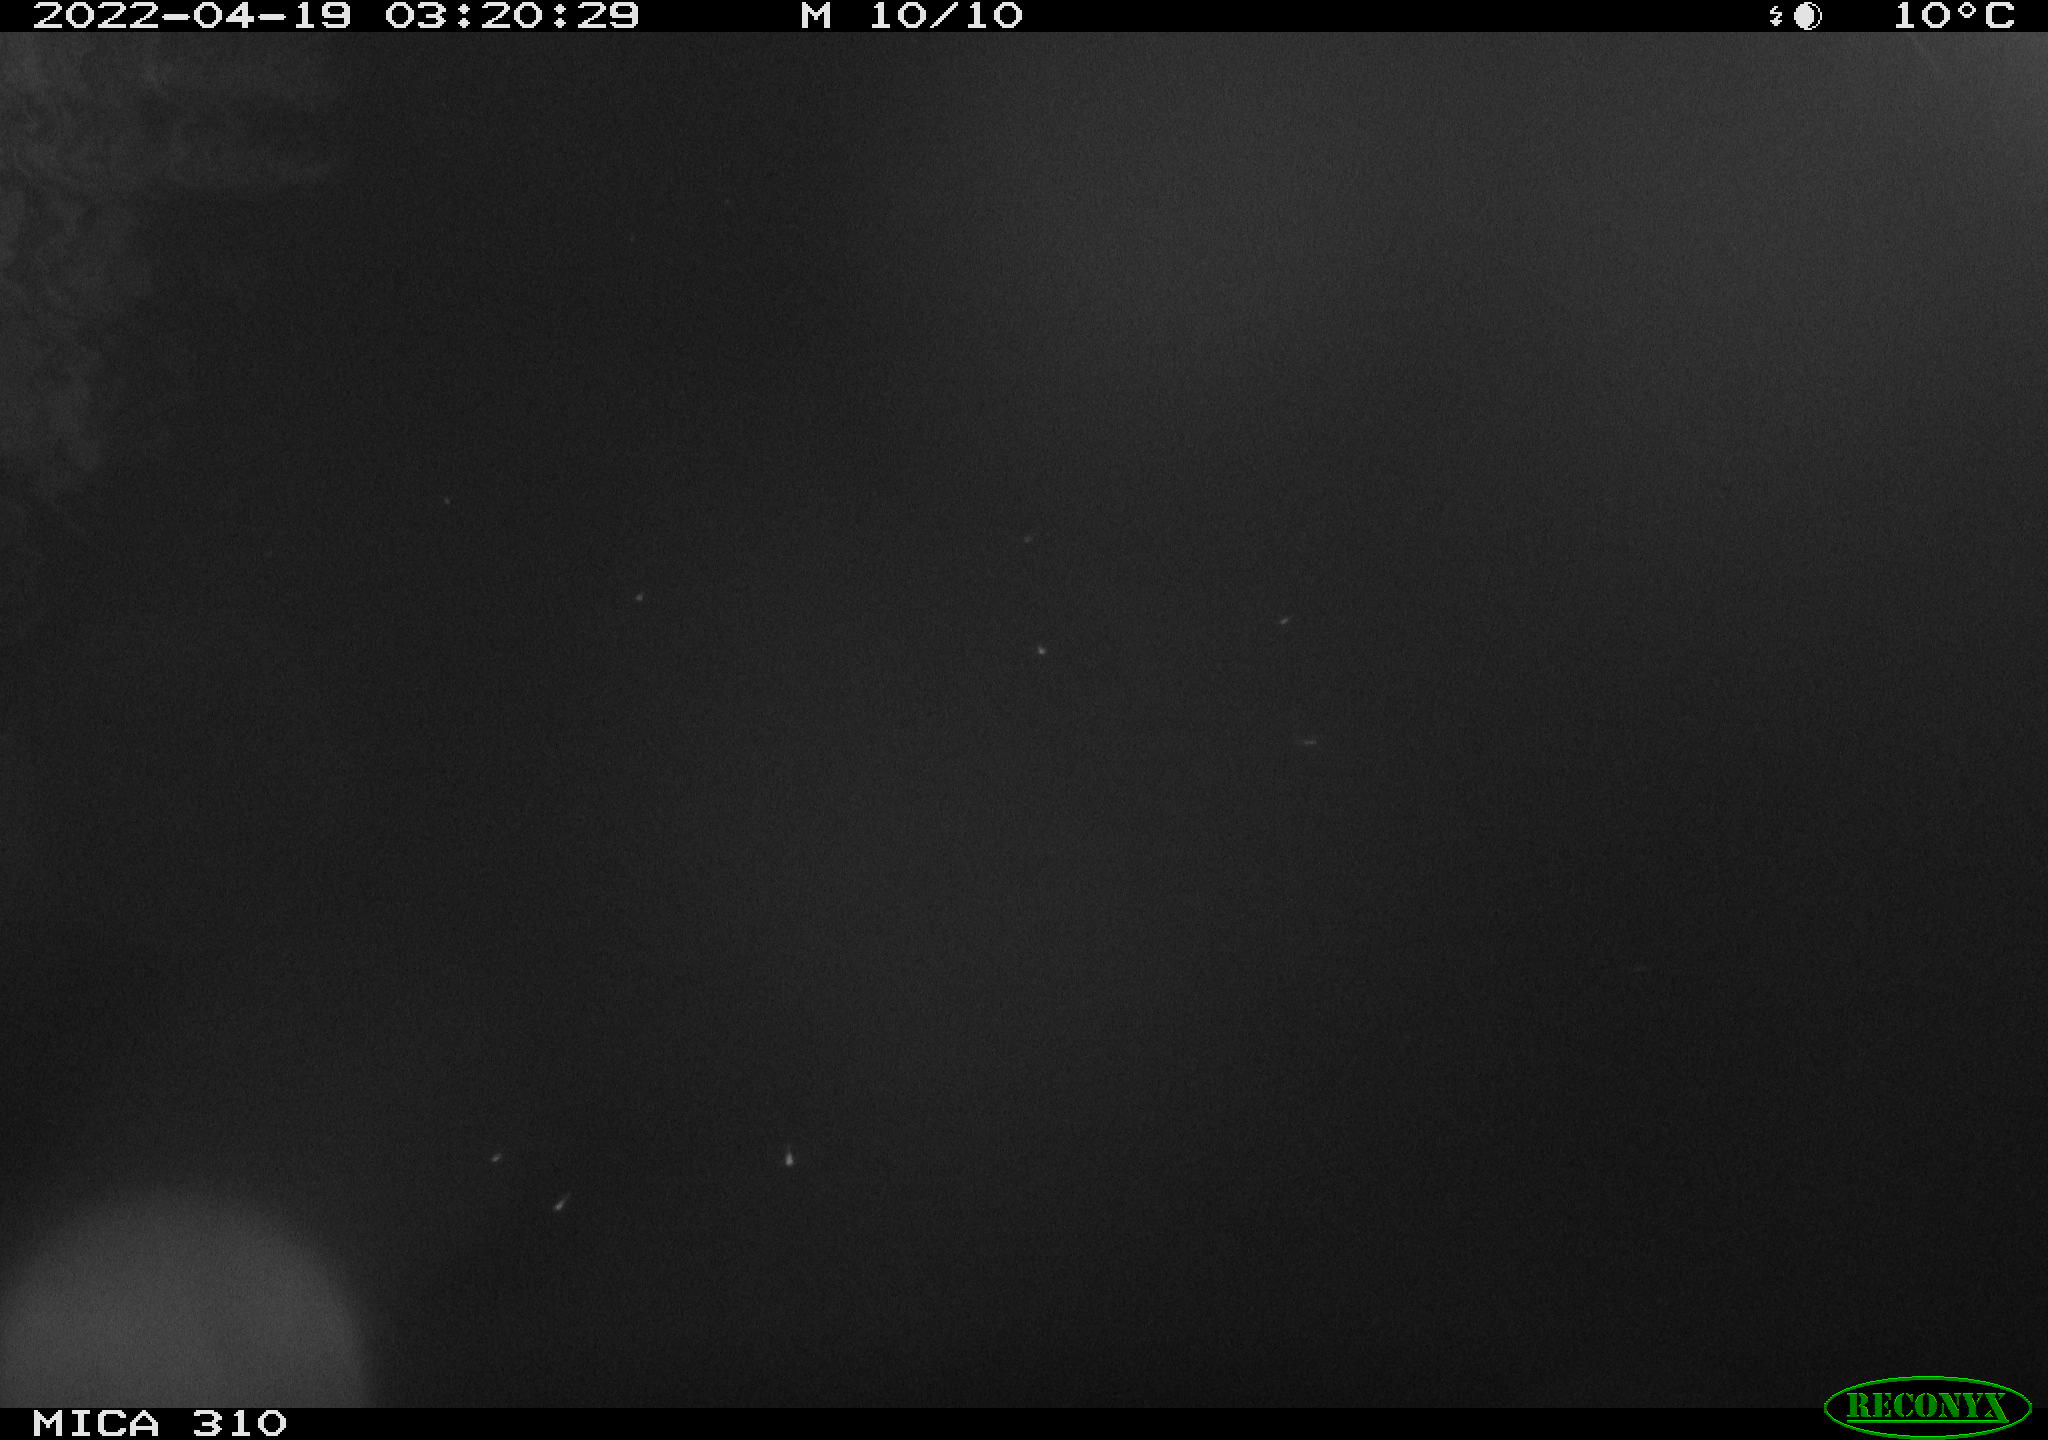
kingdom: Animalia
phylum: Chordata
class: Aves
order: Anseriformes
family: Anatidae
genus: Anas
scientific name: Anas platyrhynchos
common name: Mallard
